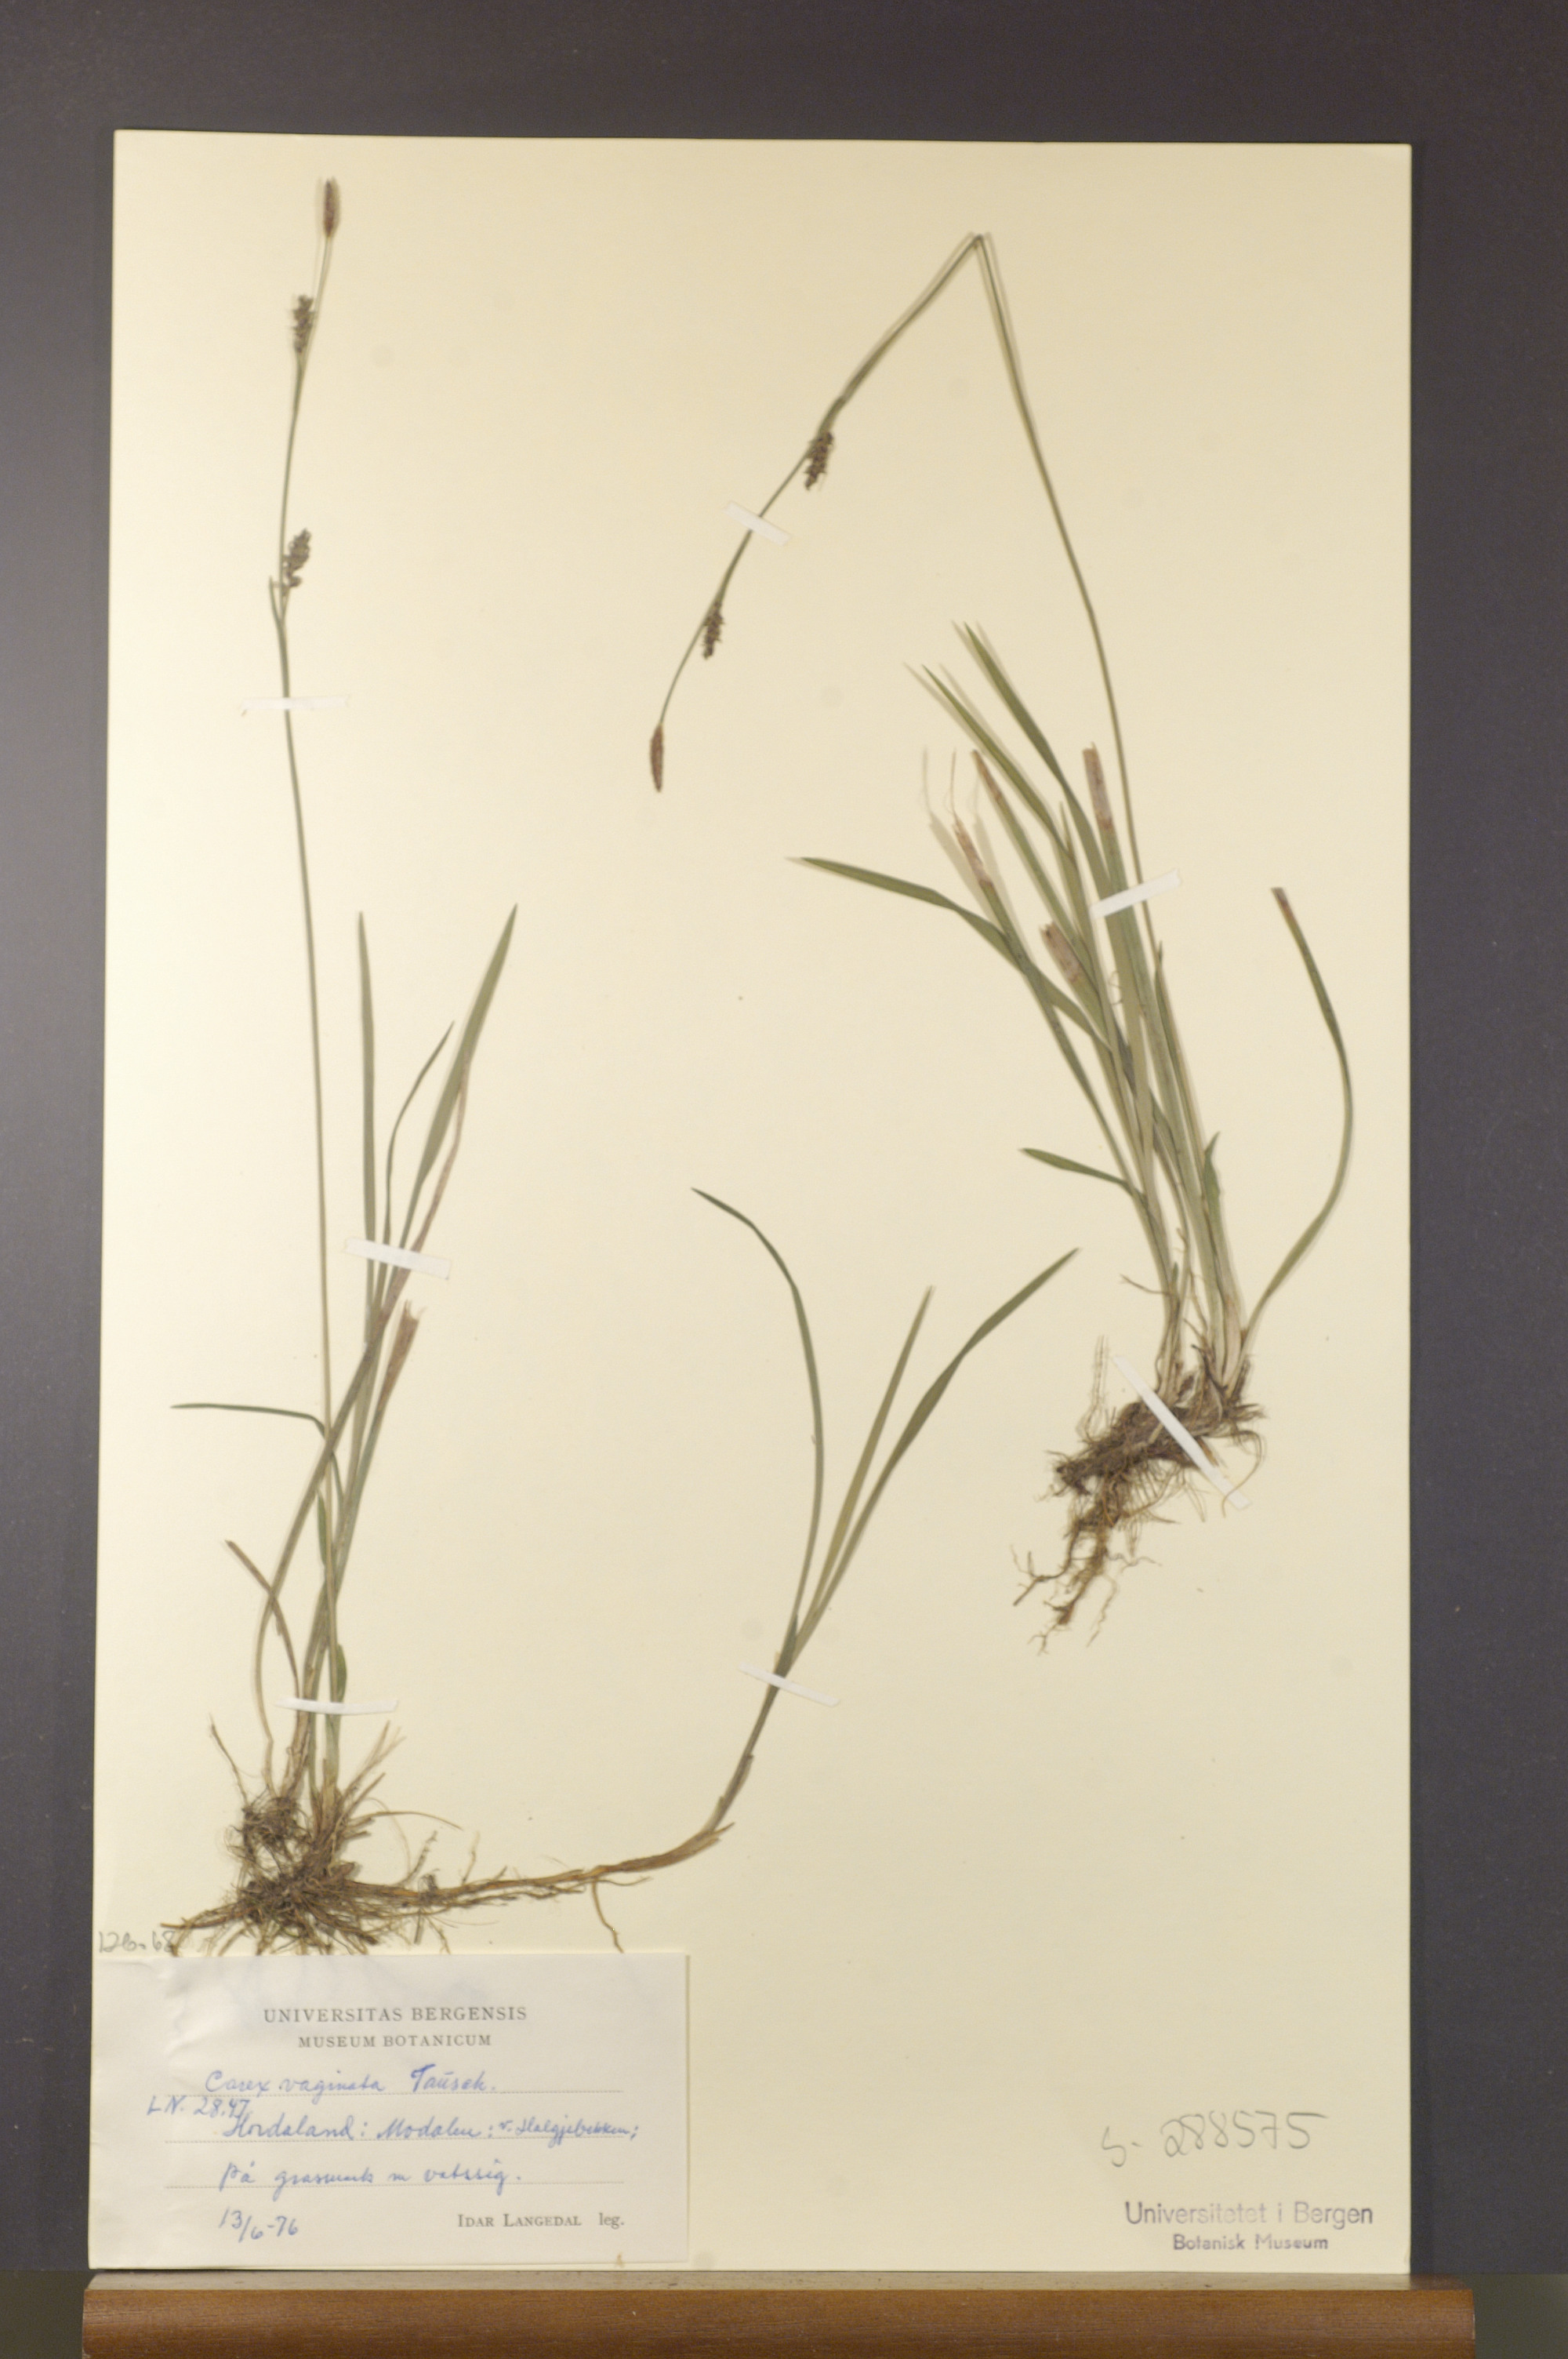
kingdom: Plantae
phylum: Tracheophyta
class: Liliopsida
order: Poales
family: Cyperaceae
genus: Carex
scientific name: Carex vaginata
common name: Sheathed sedge
